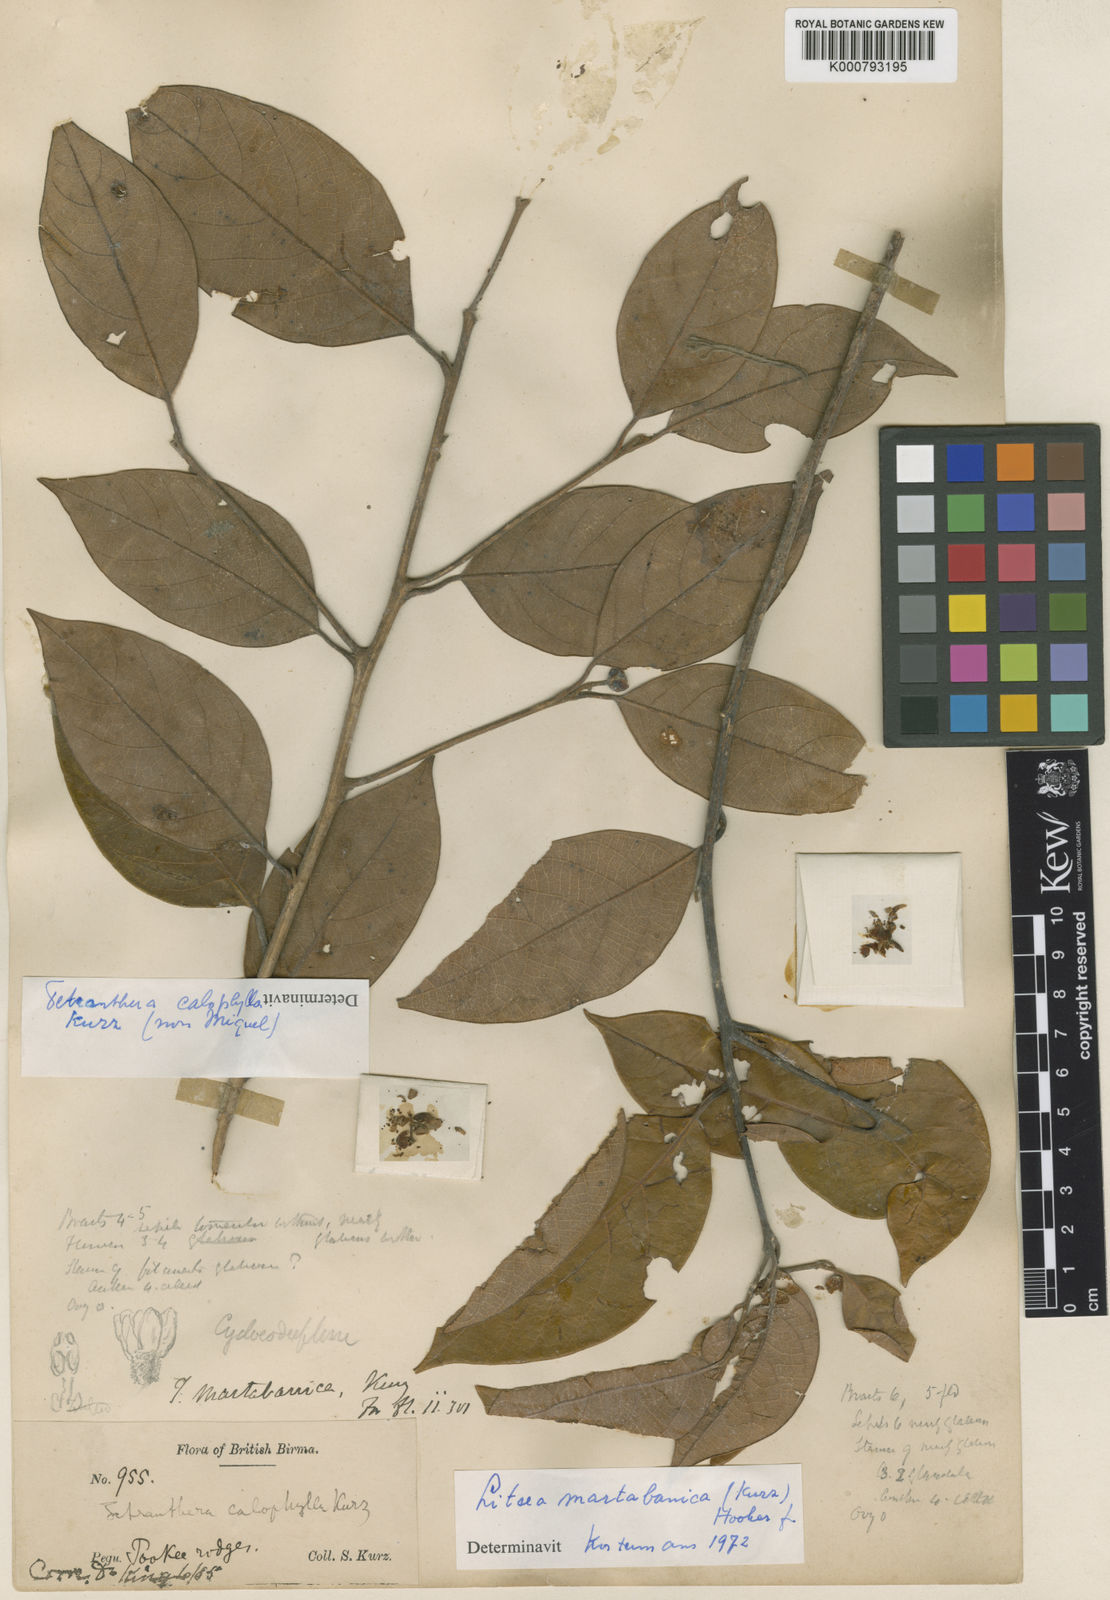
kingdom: Plantae
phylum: Tracheophyta
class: Magnoliopsida
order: Laurales
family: Lauraceae
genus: Litsea
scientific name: Litsea martabanica
